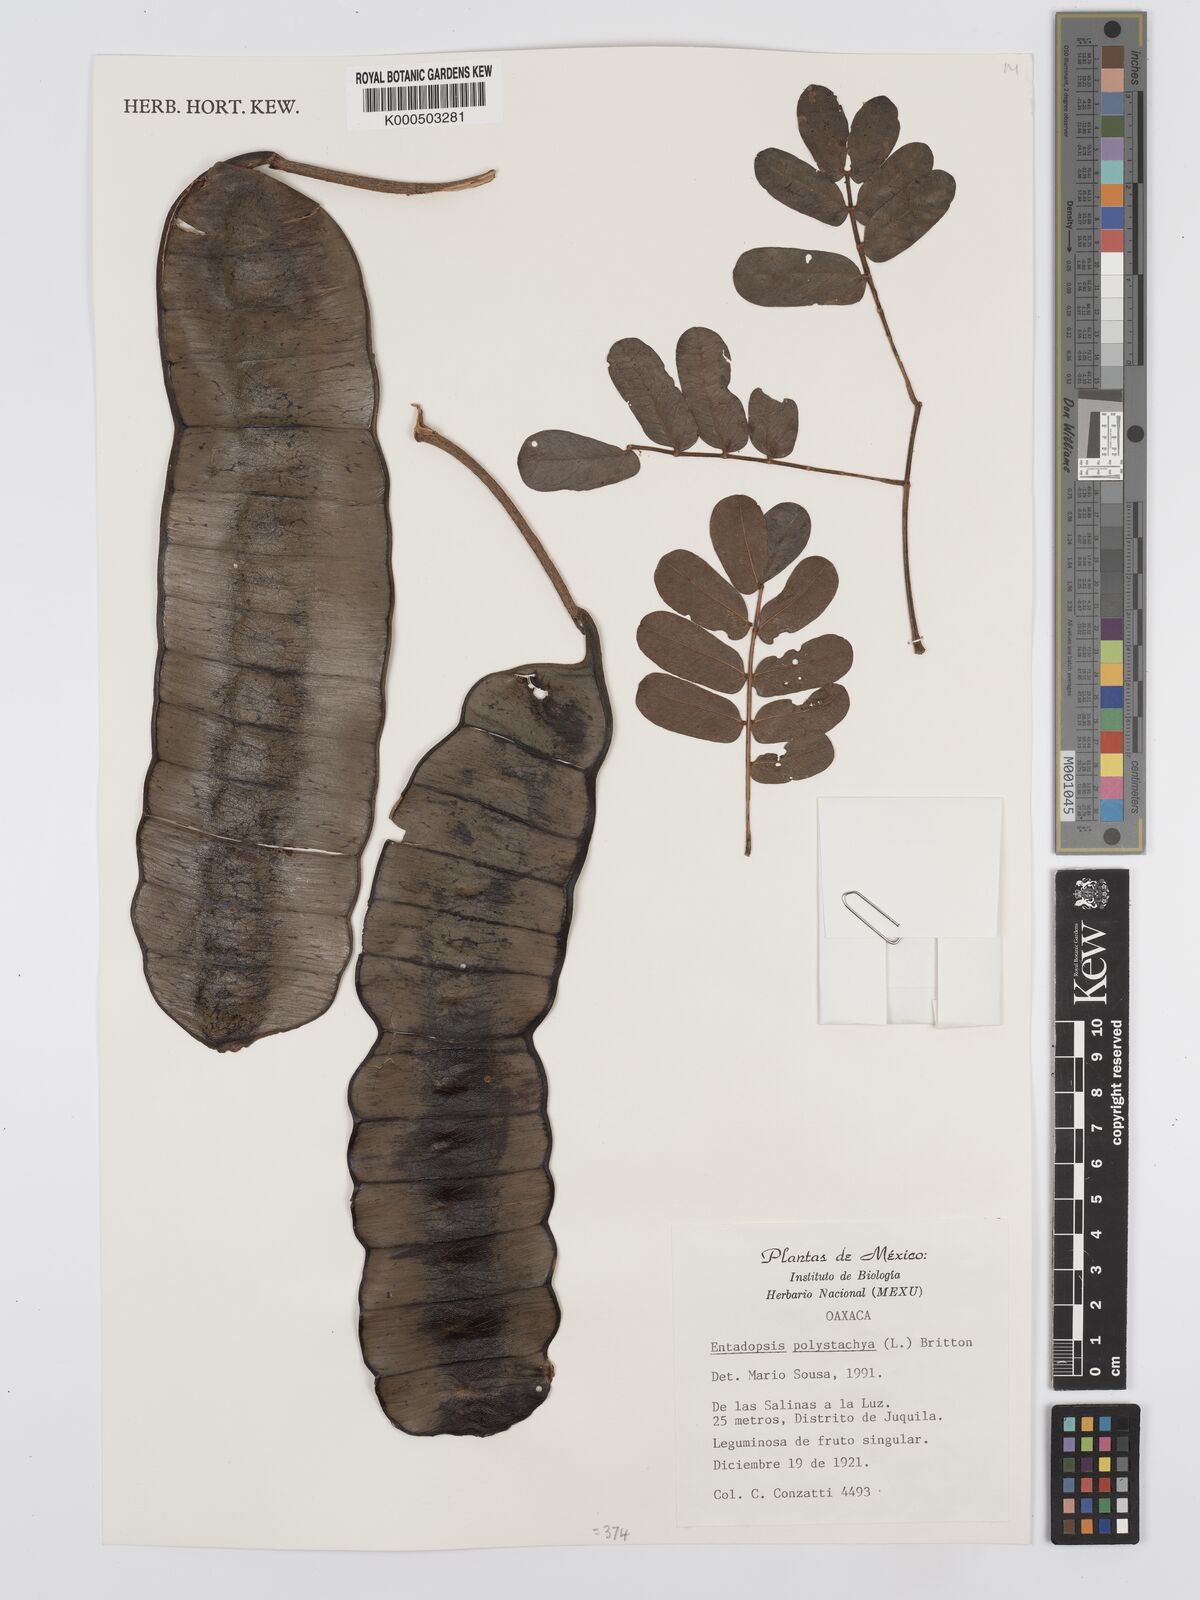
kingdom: Plantae
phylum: Tracheophyta
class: Magnoliopsida
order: Fabales
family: Fabaceae
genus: Entada
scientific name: Entada polystachya
